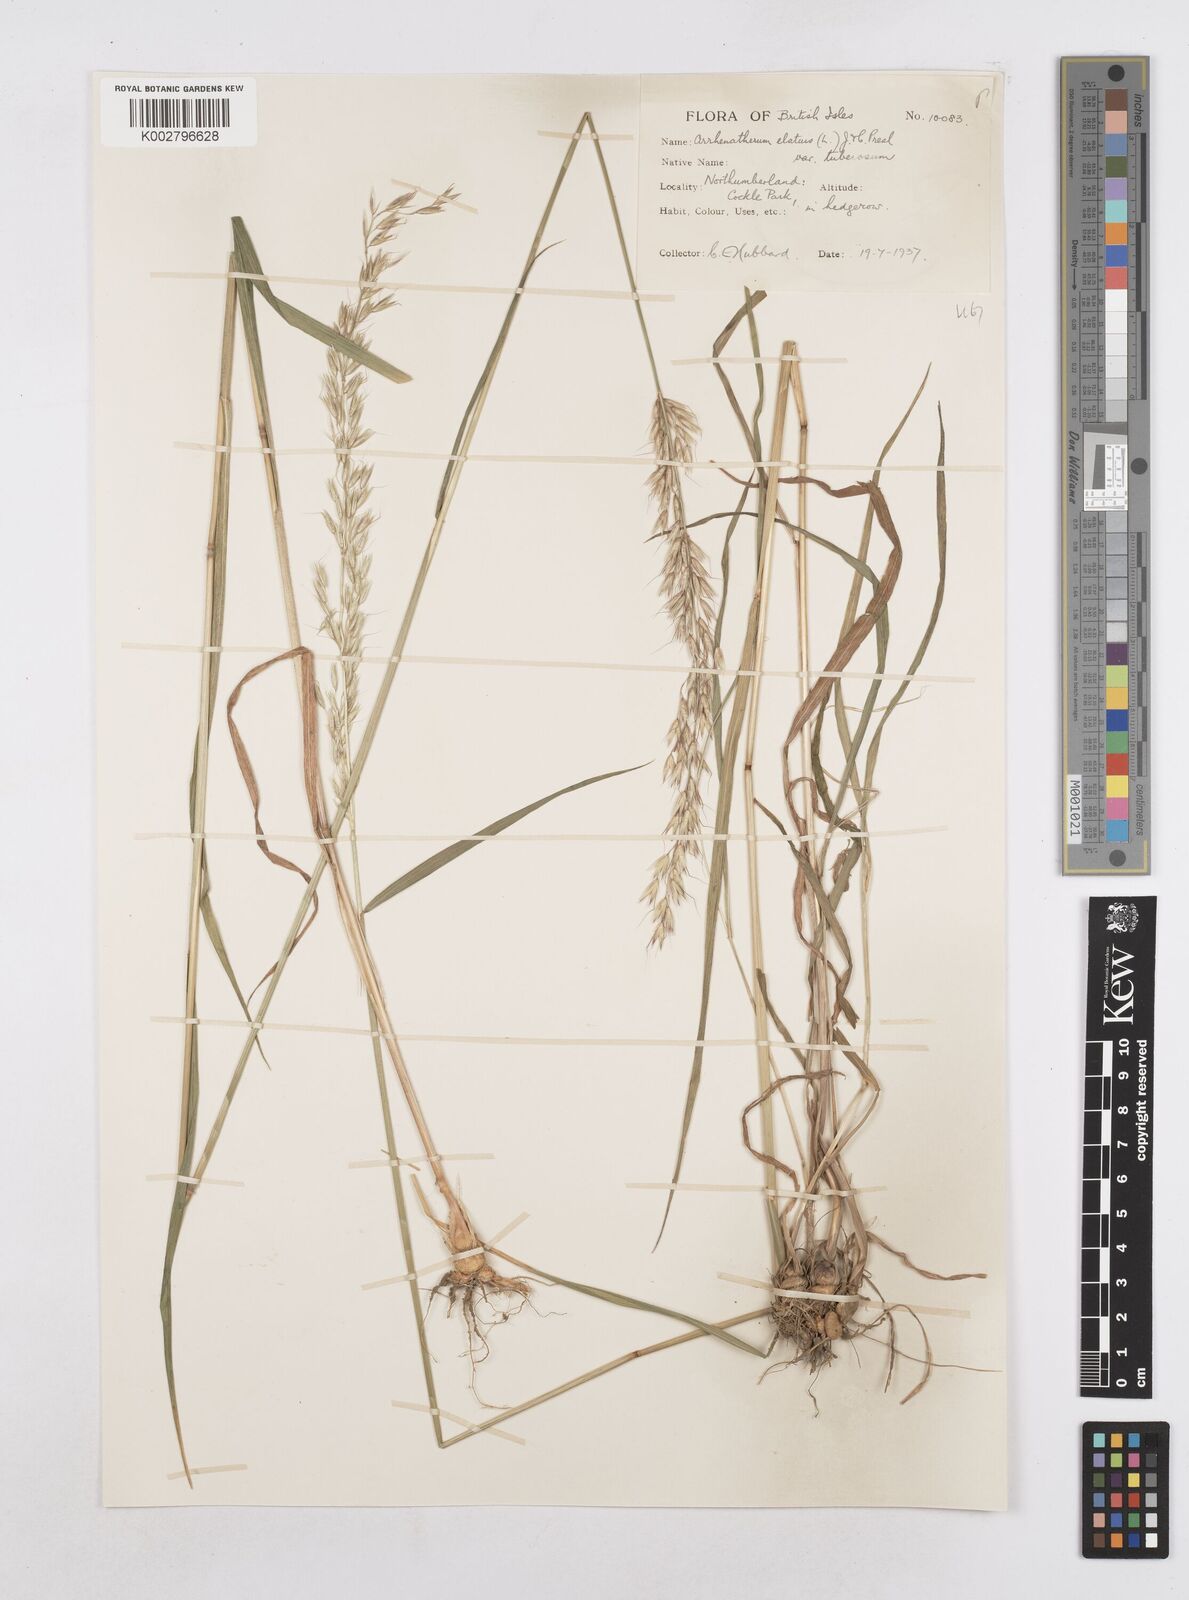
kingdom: Plantae
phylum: Tracheophyta
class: Liliopsida
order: Poales
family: Poaceae
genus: Arrhenatherum
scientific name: Arrhenatherum elatius
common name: Tall oatgrass
